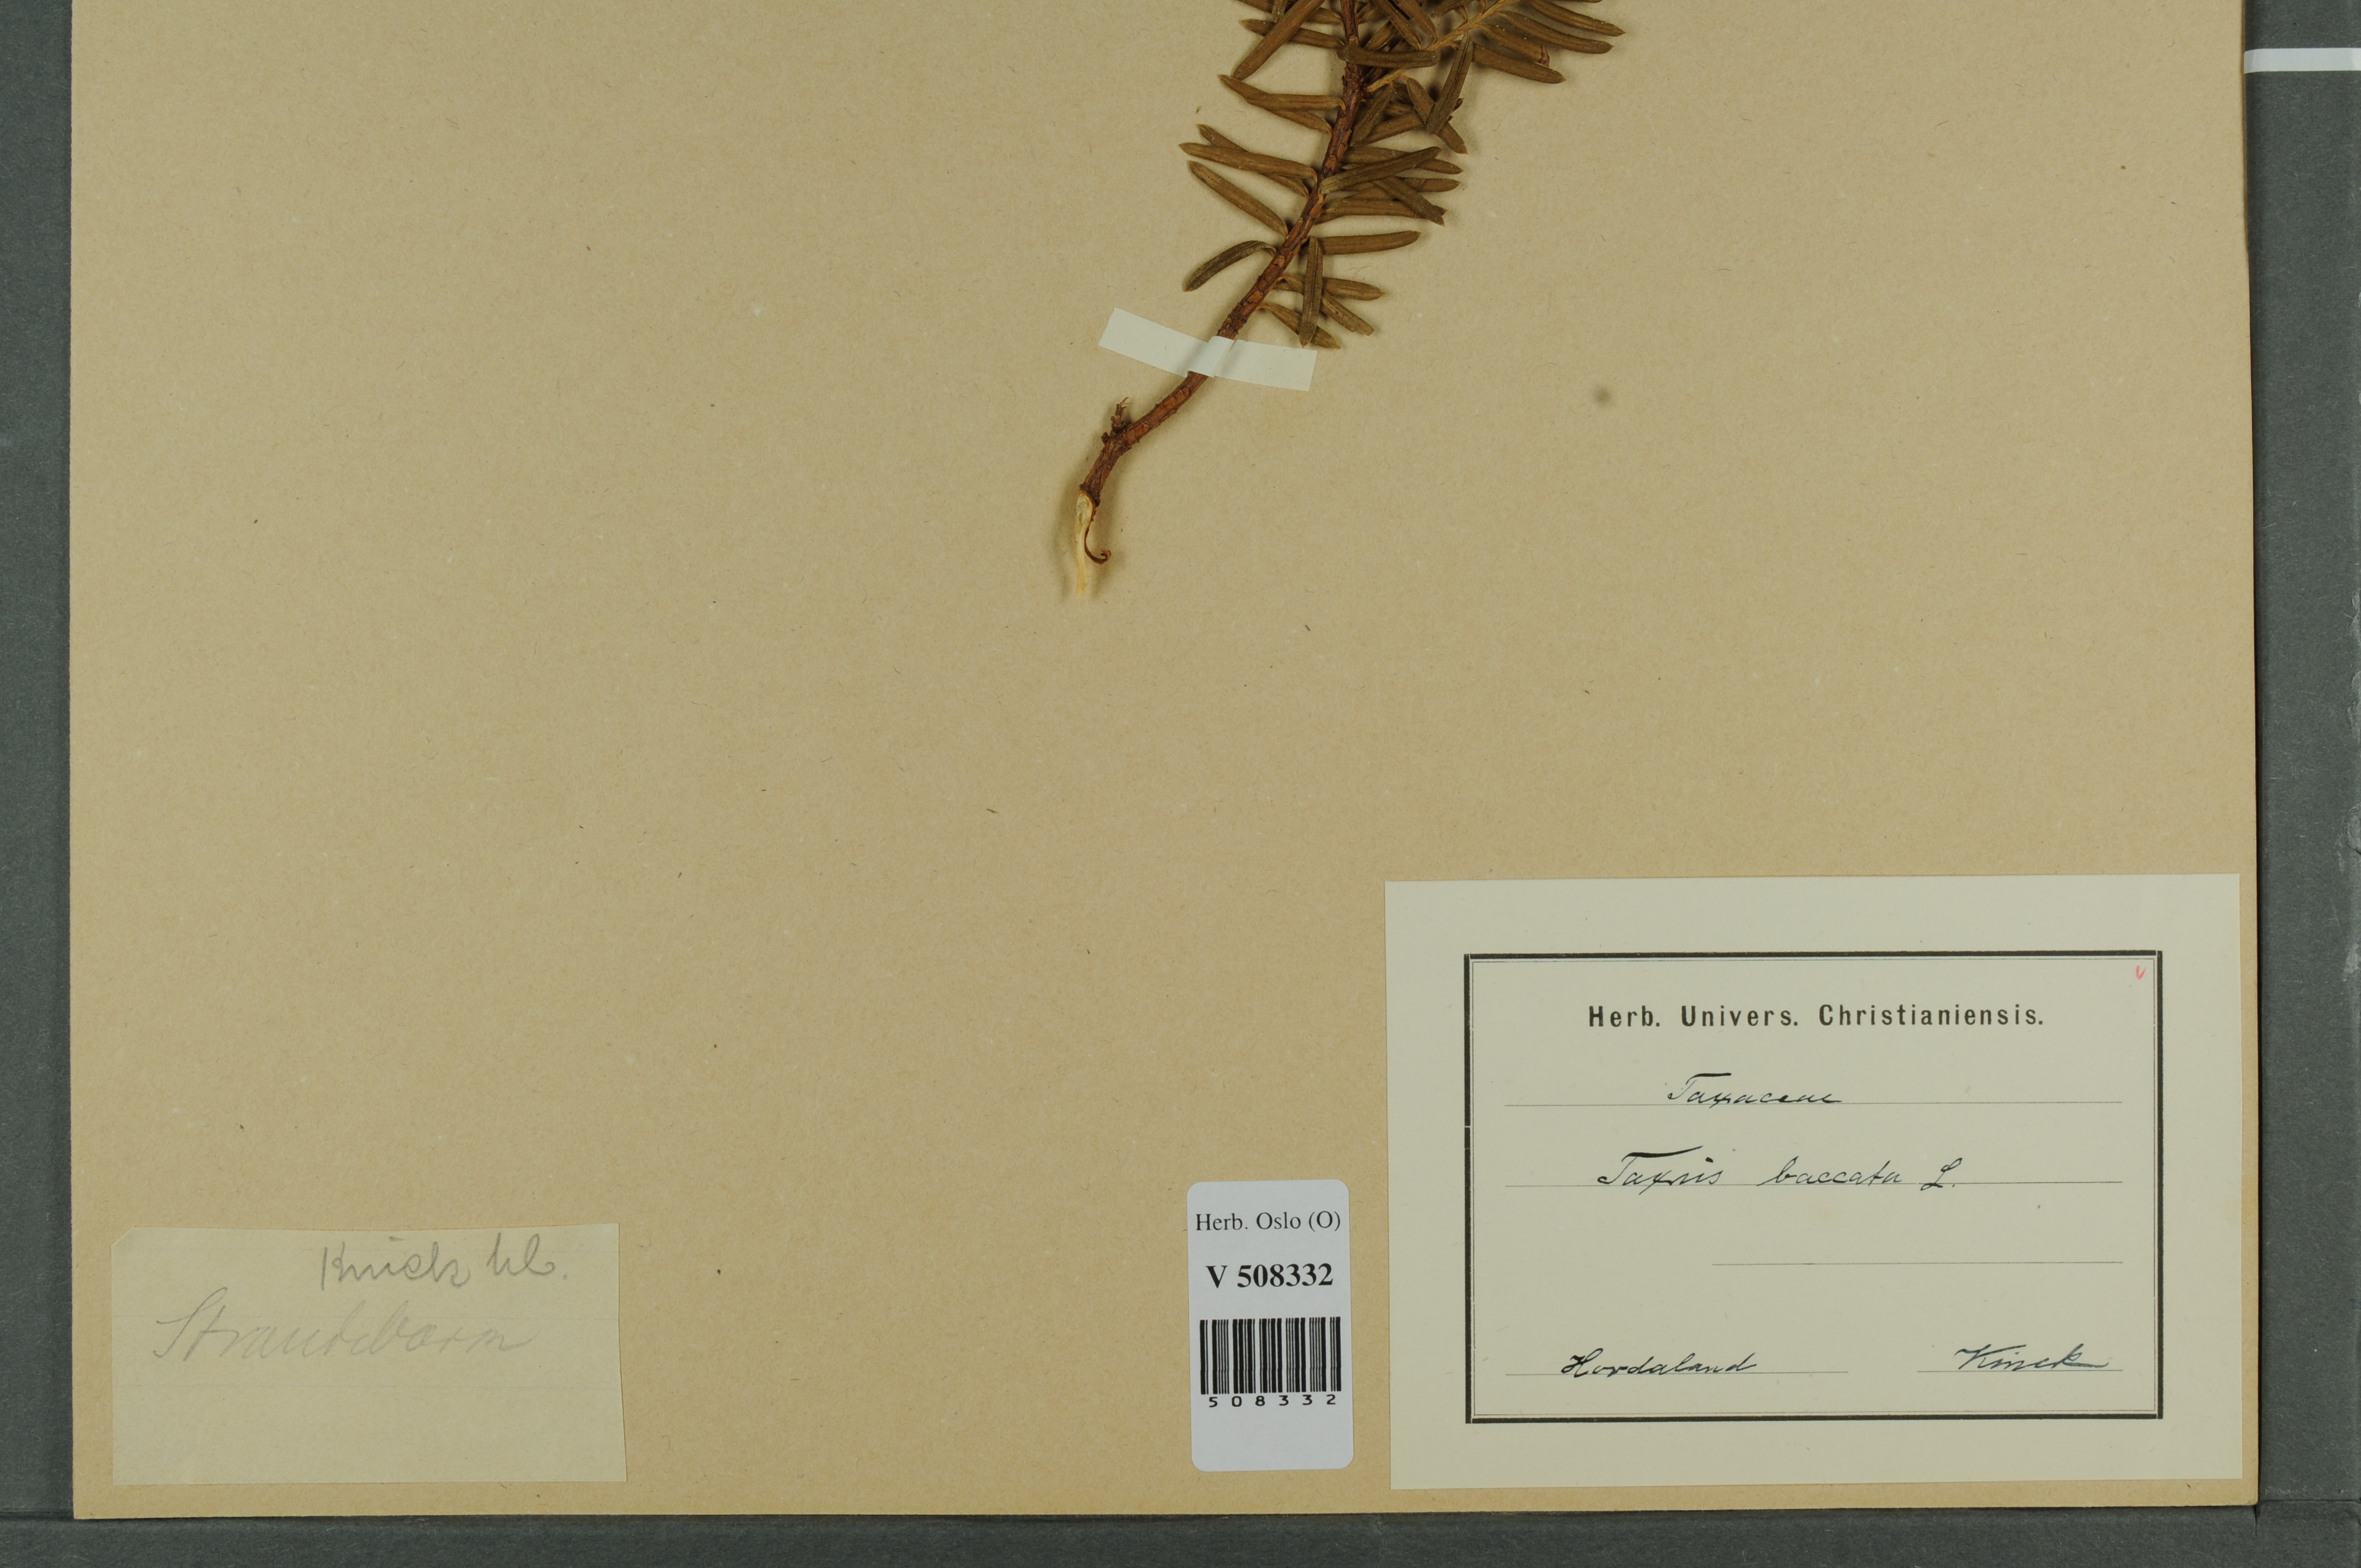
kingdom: Plantae
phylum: Tracheophyta
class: Pinopsida
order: Pinales
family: Taxaceae
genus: Taxus
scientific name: Taxus baccata
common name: Yew
